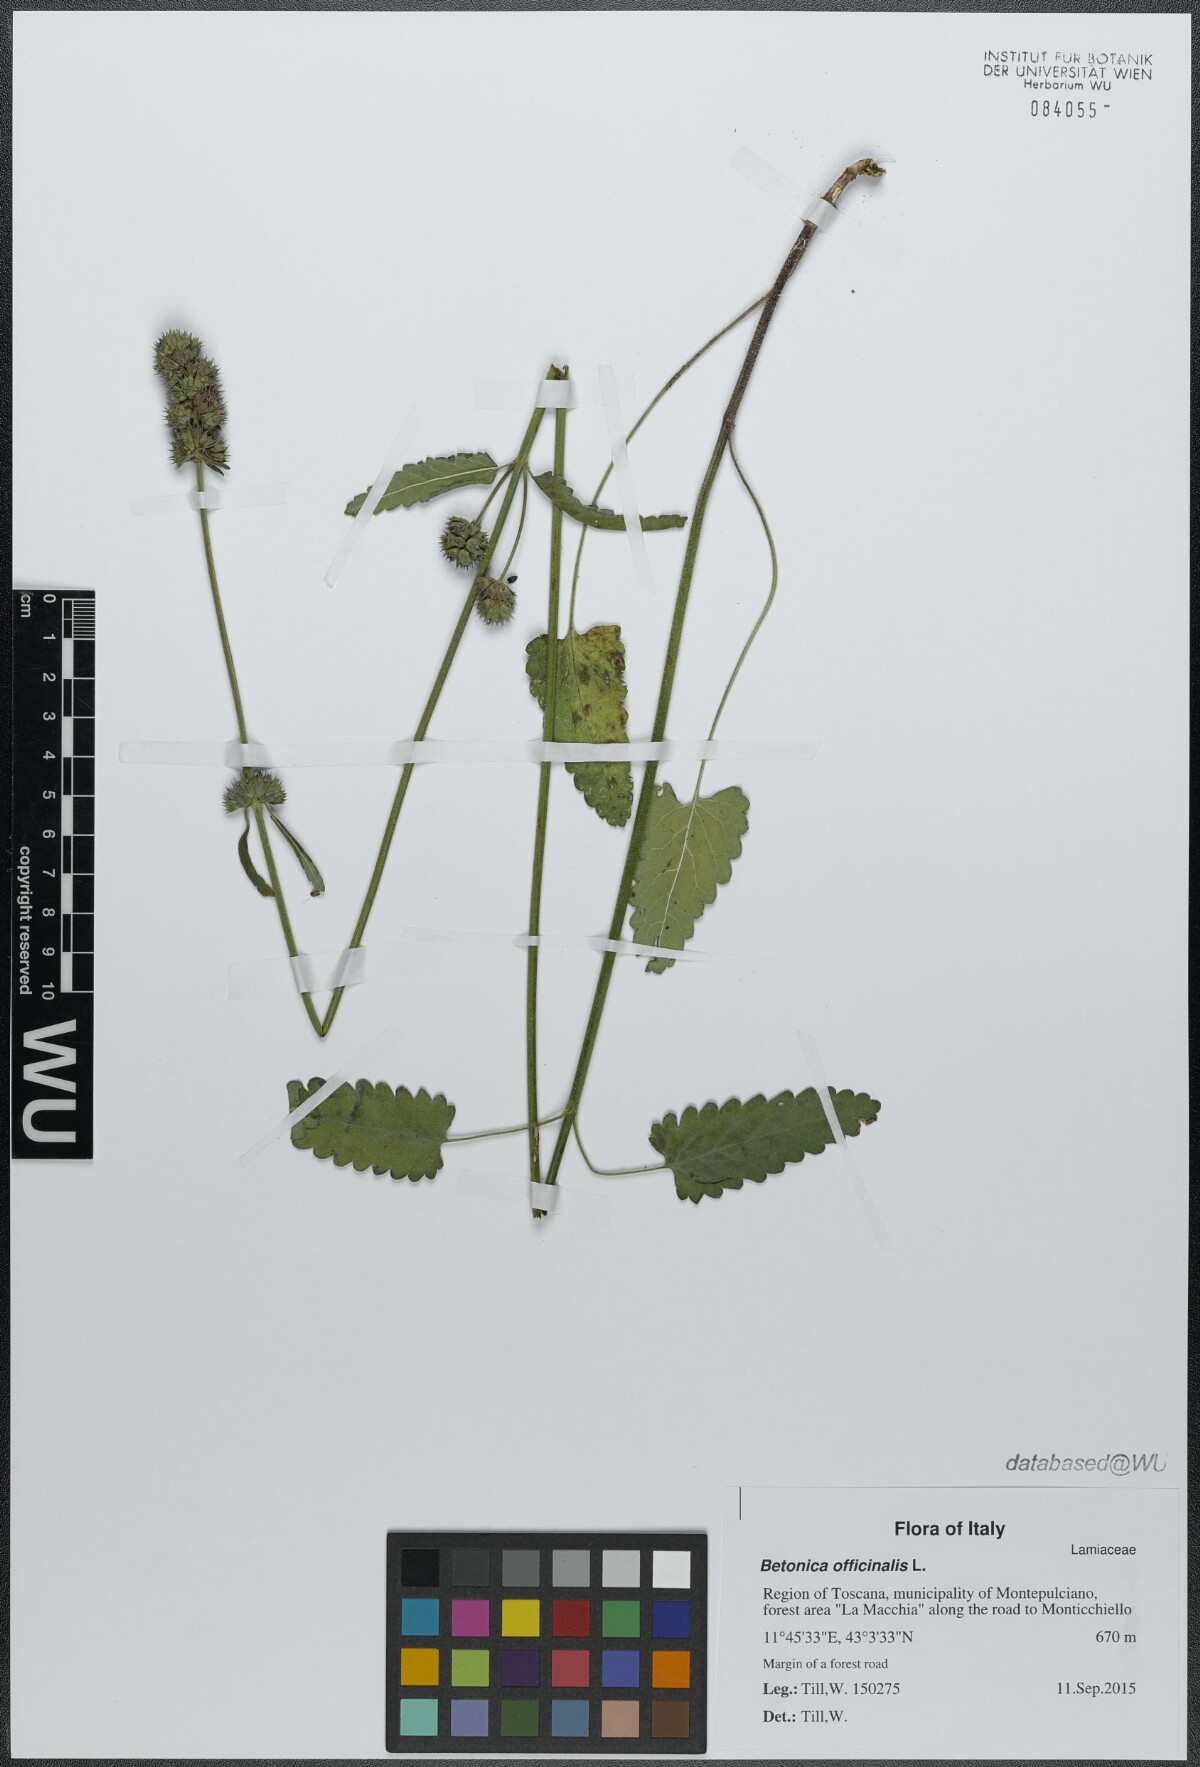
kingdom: Plantae
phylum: Tracheophyta
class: Magnoliopsida
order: Lamiales
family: Lamiaceae
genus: Betonica
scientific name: Betonica officinalis
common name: Bishop's-wort
